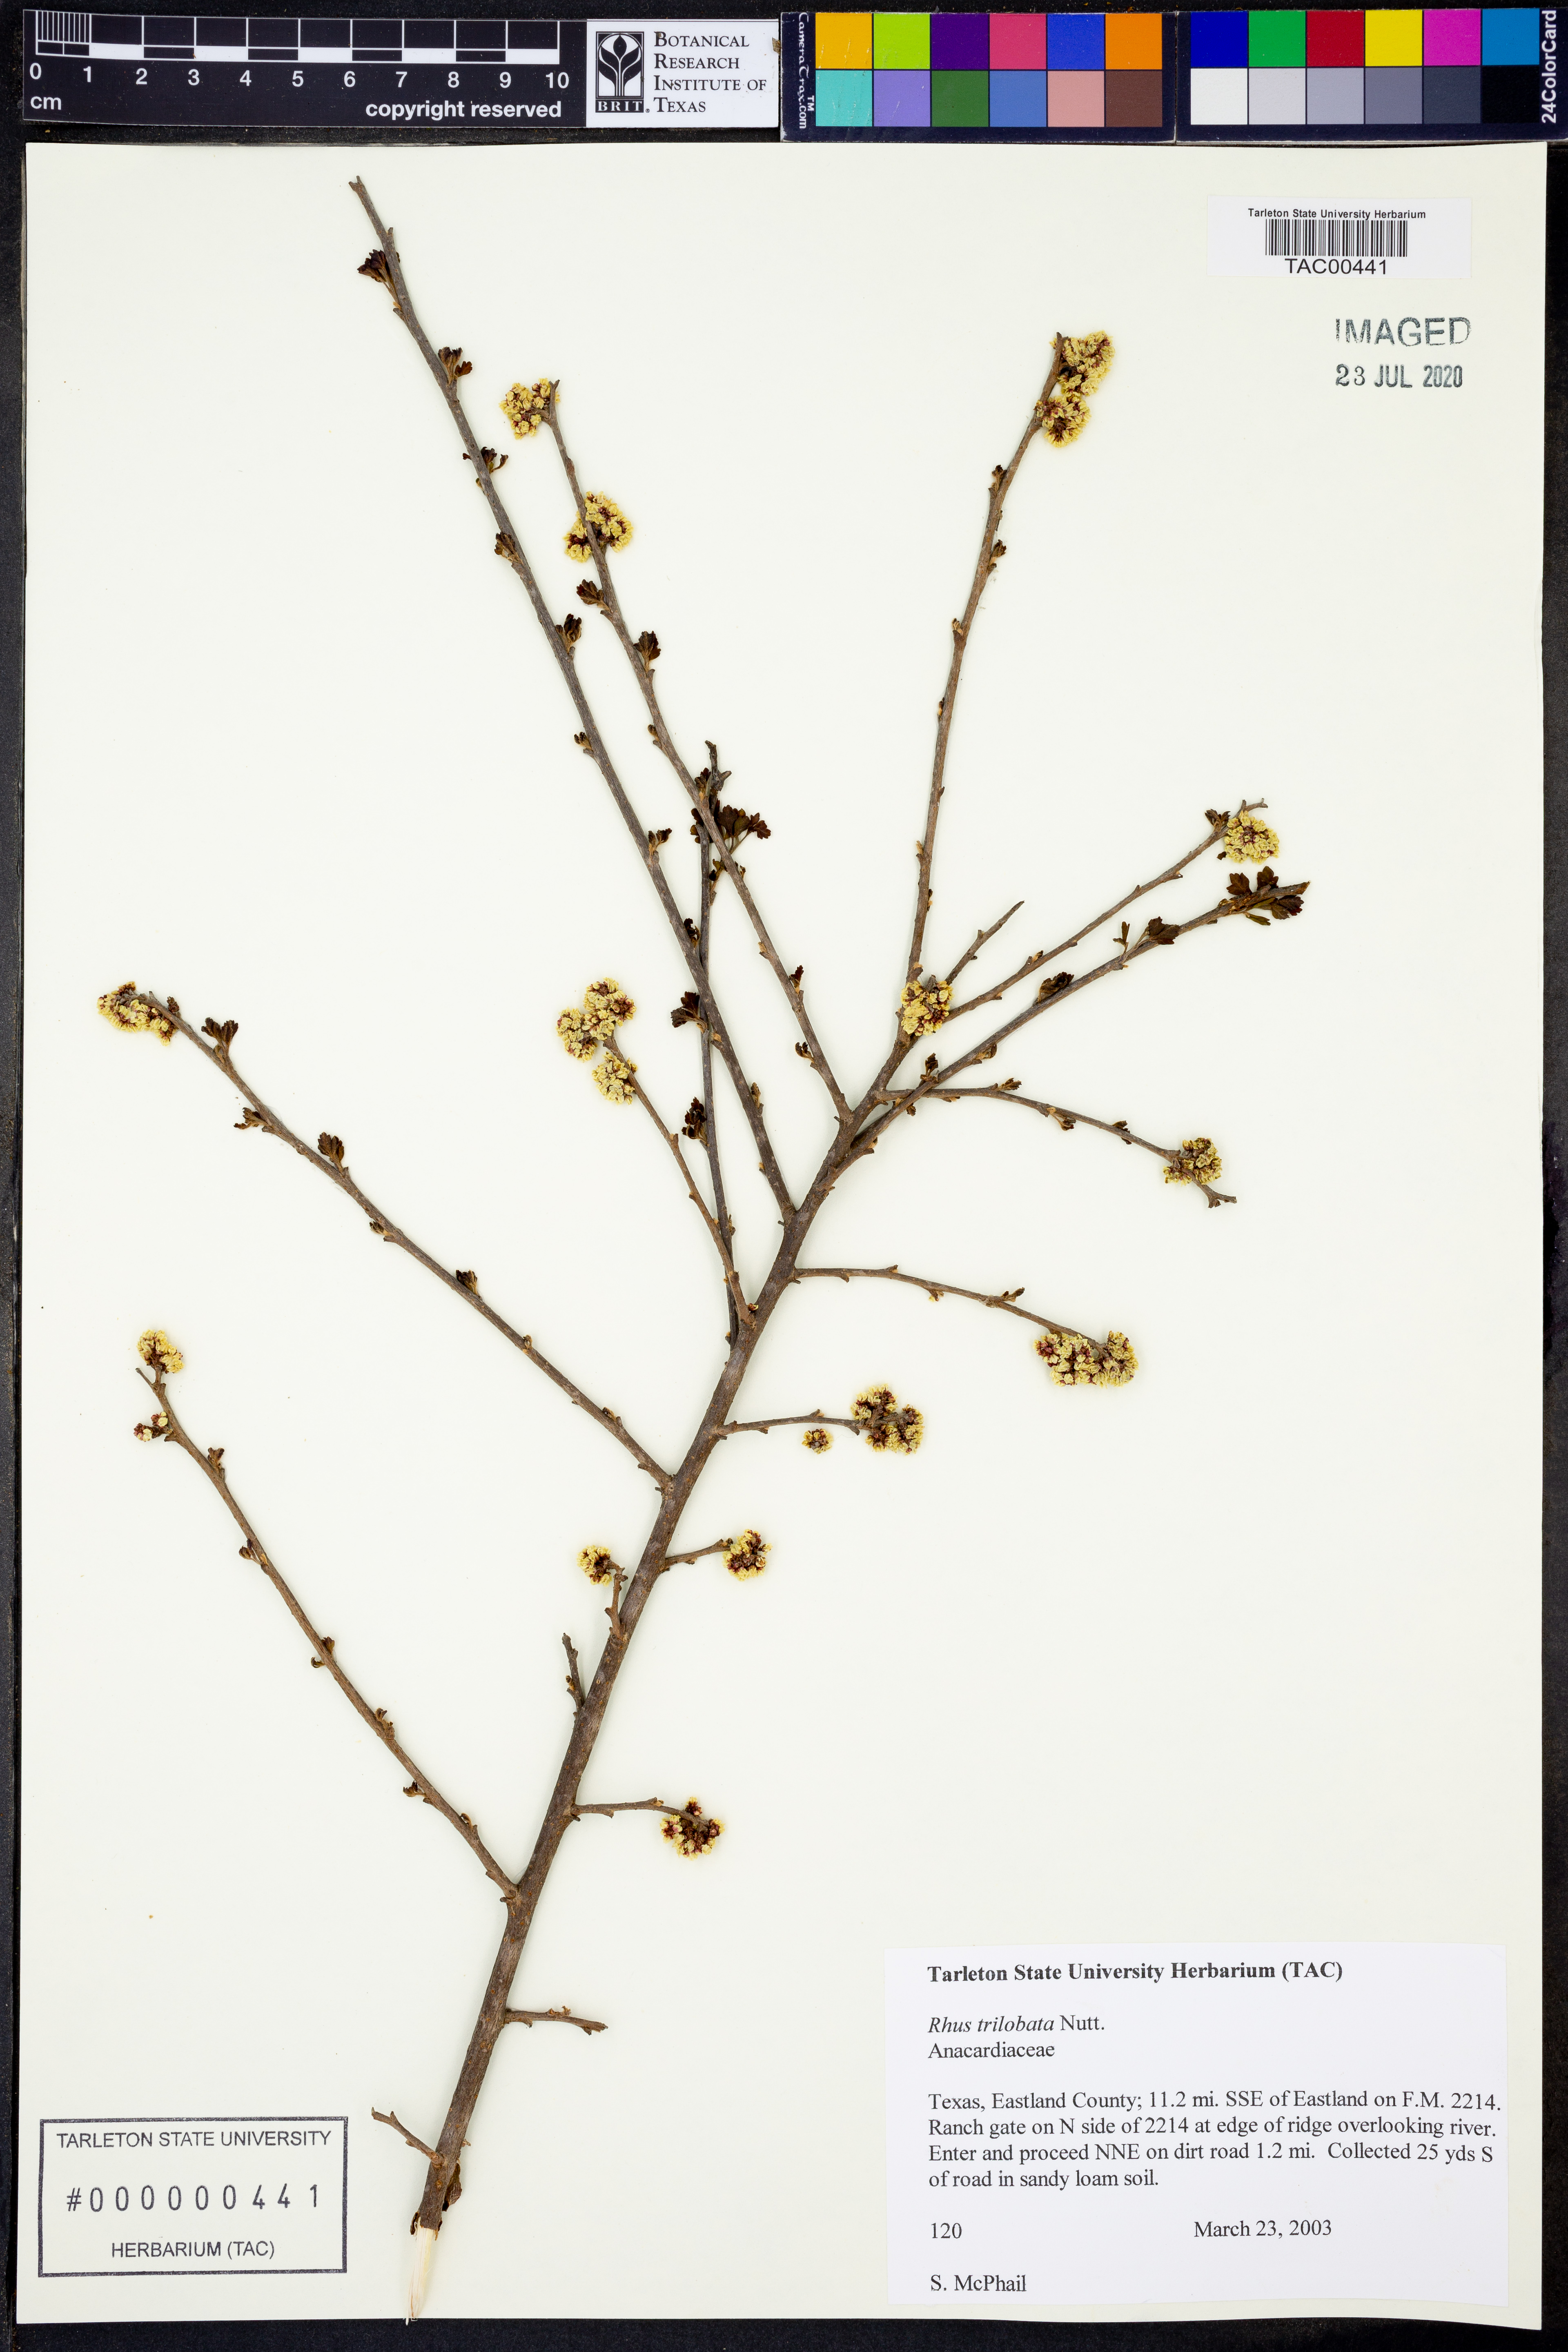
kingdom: Plantae
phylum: Tracheophyta
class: Magnoliopsida
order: Sapindales
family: Anacardiaceae
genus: Rhus
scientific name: Rhus trilobata
